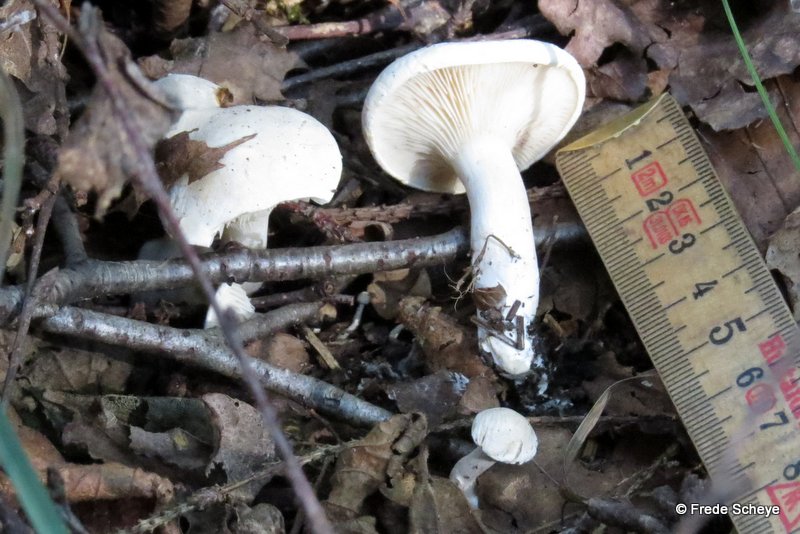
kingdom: Fungi
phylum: Basidiomycota
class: Agaricomycetes
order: Agaricales
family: Entolomataceae
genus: Clitopilus
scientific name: Clitopilus prunulus
